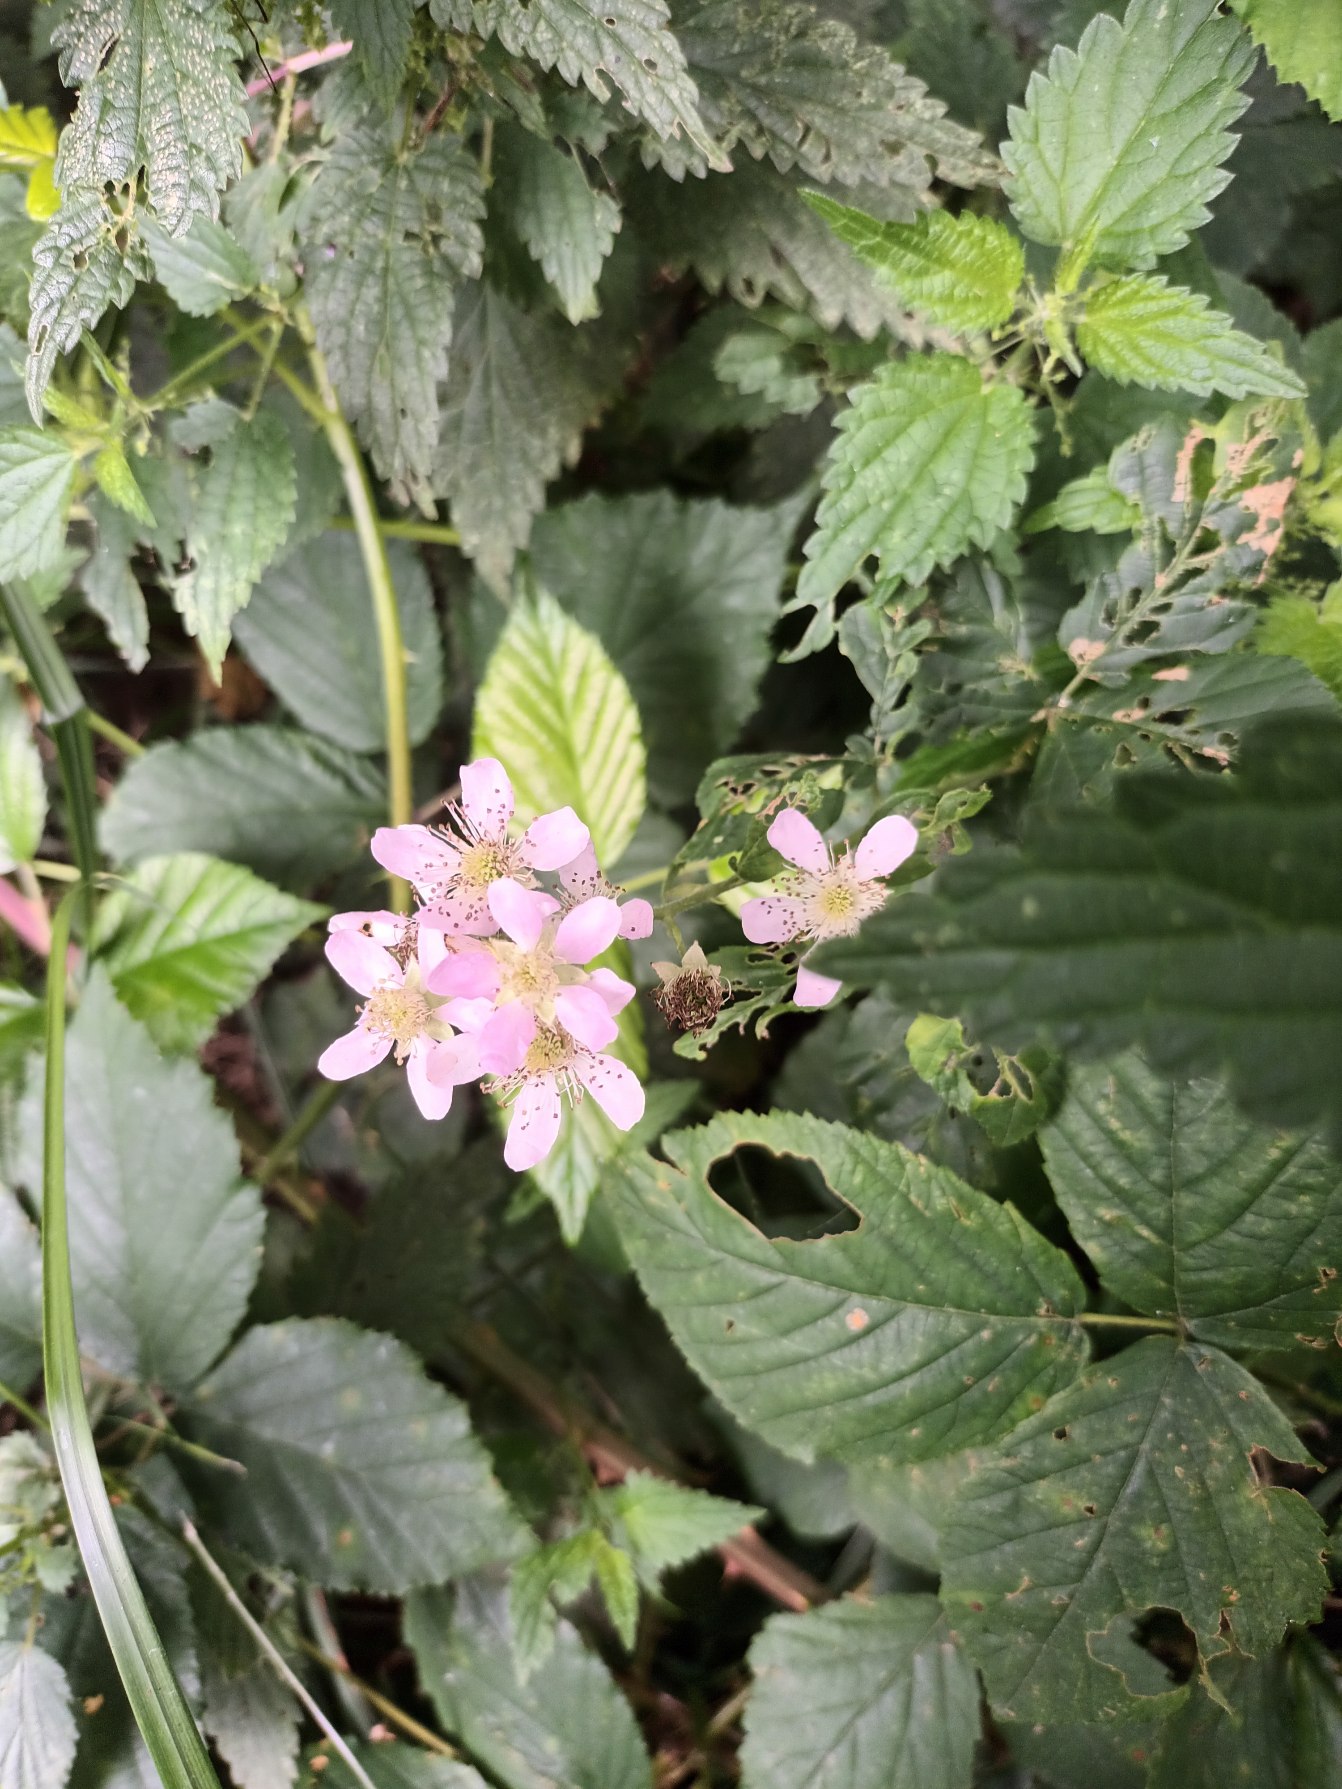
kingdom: Plantae
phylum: Tracheophyta
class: Magnoliopsida
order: Rosales
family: Rosaceae
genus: Rubus
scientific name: Rubus pseudothyrsanthus
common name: Top-brombær
